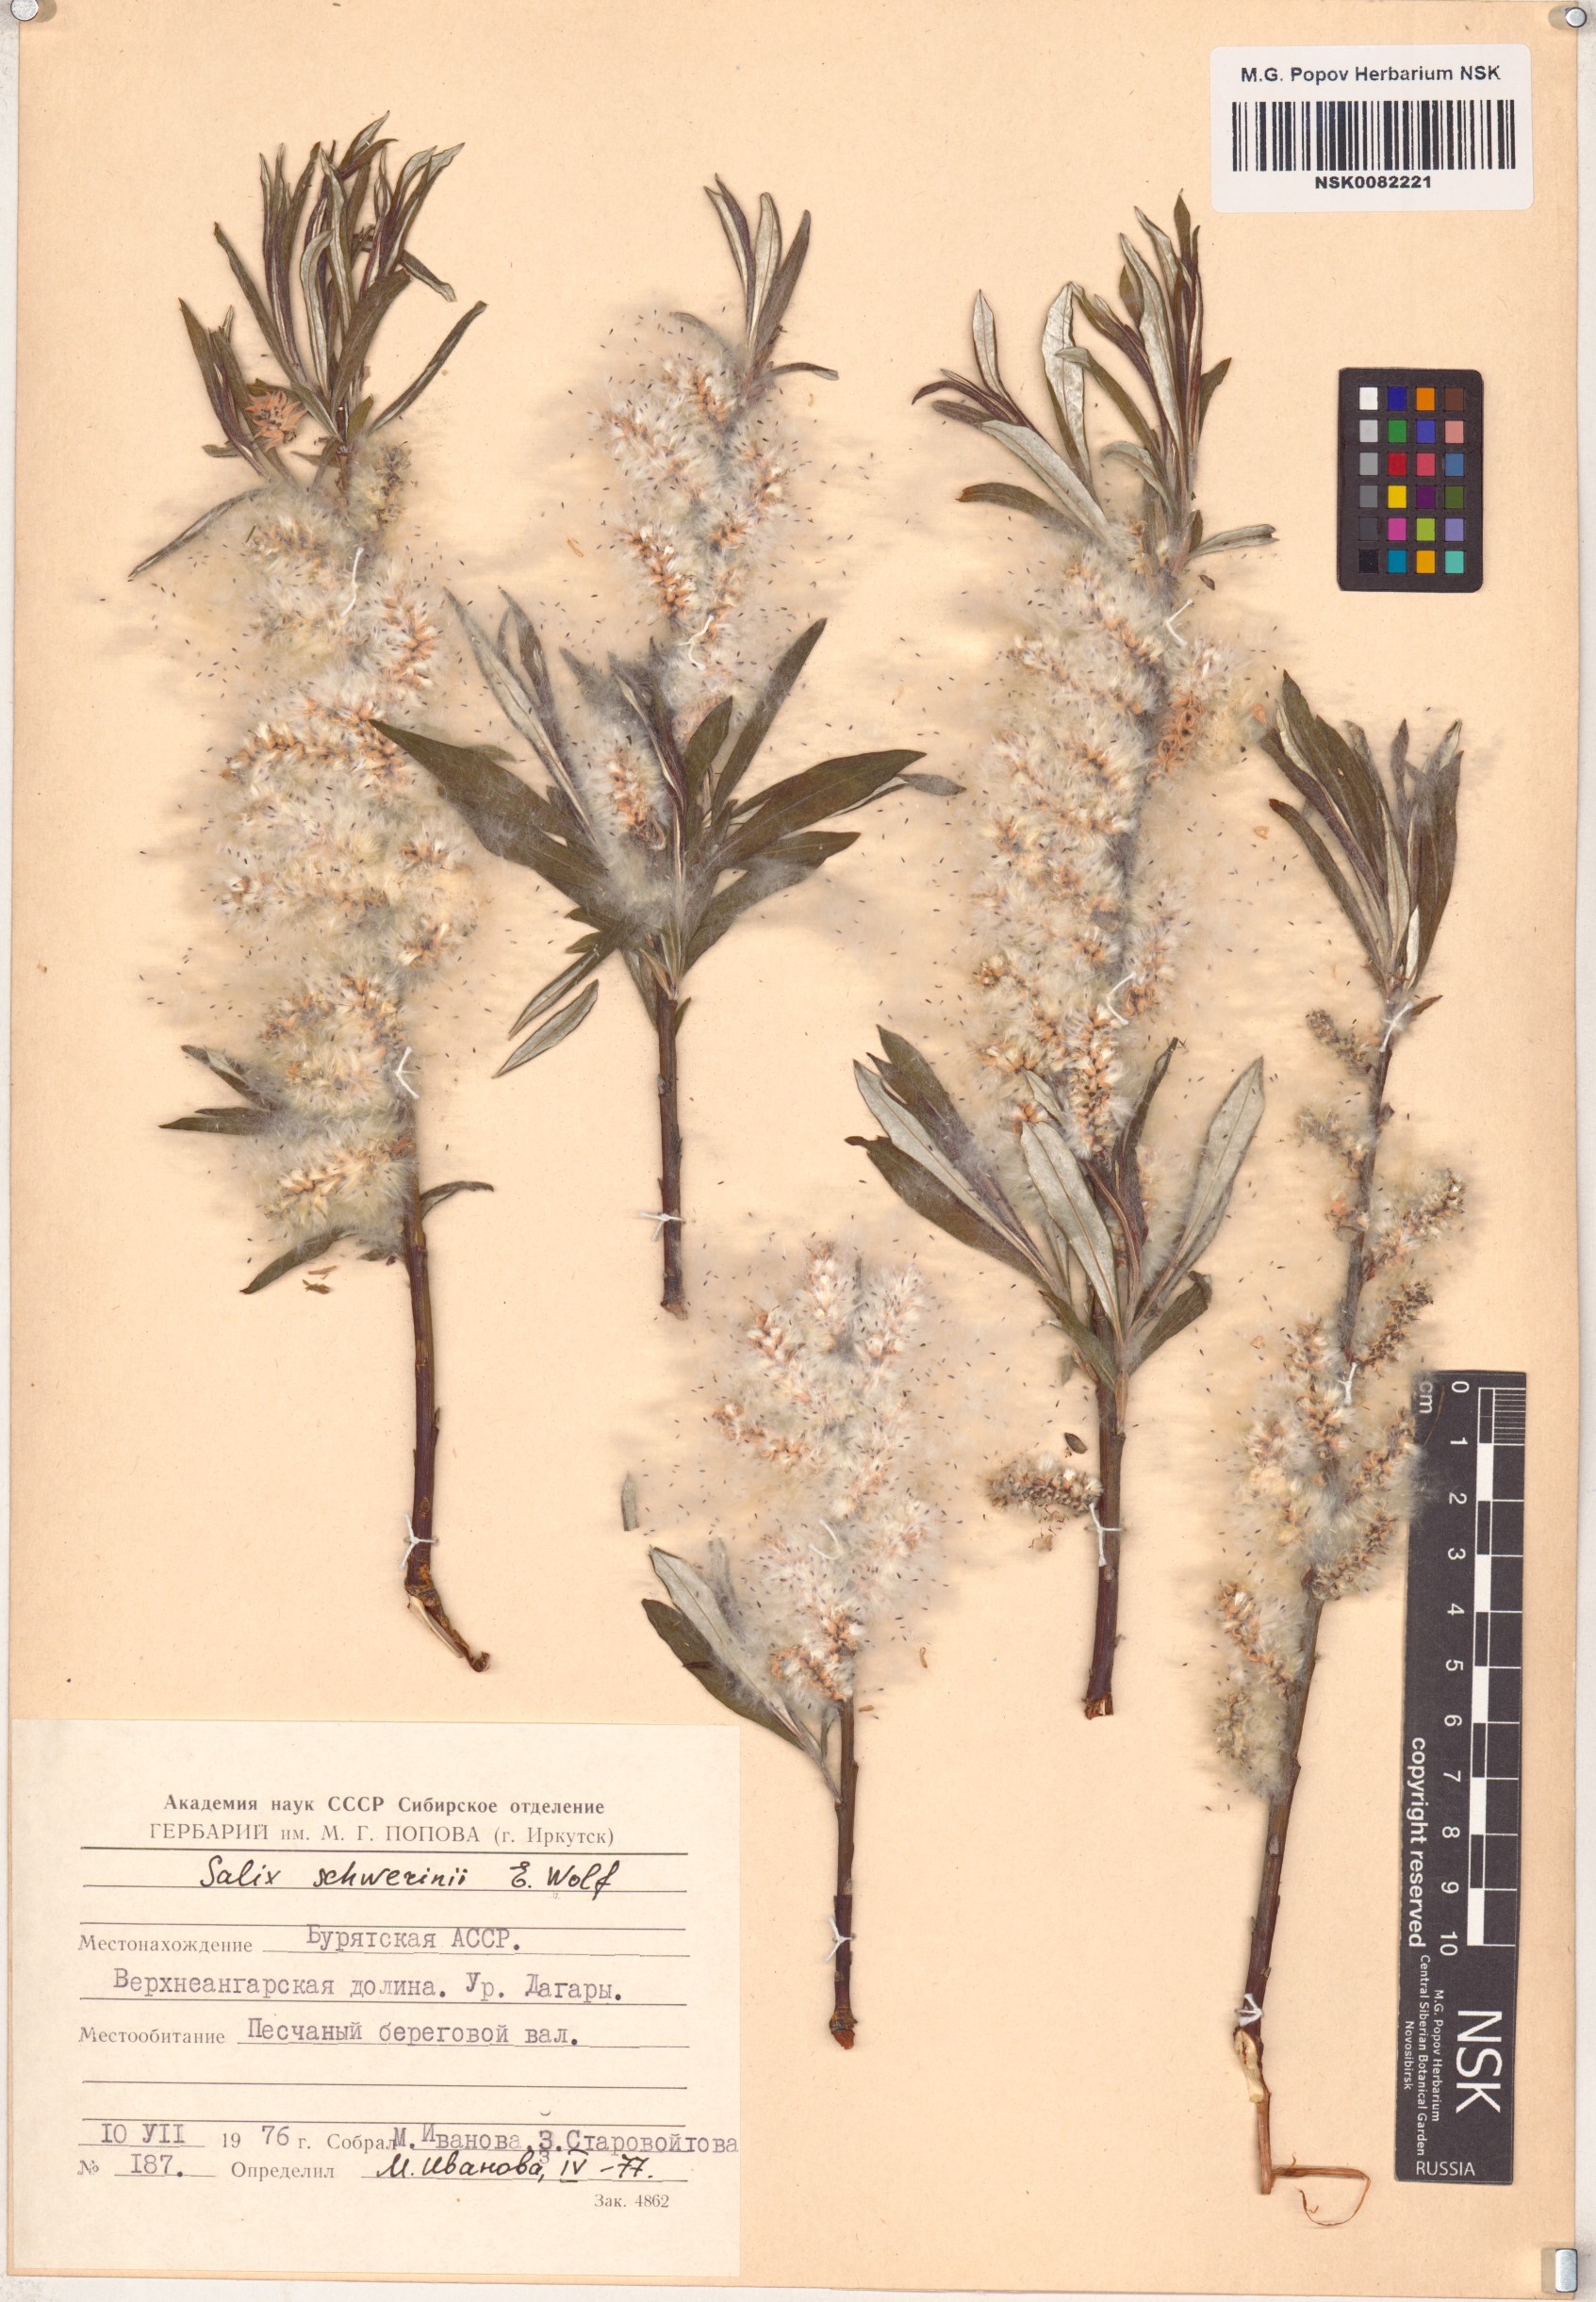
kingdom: Plantae
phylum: Tracheophyta
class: Magnoliopsida
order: Malpighiales
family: Salicaceae
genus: Salix
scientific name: Salix schwerinii
